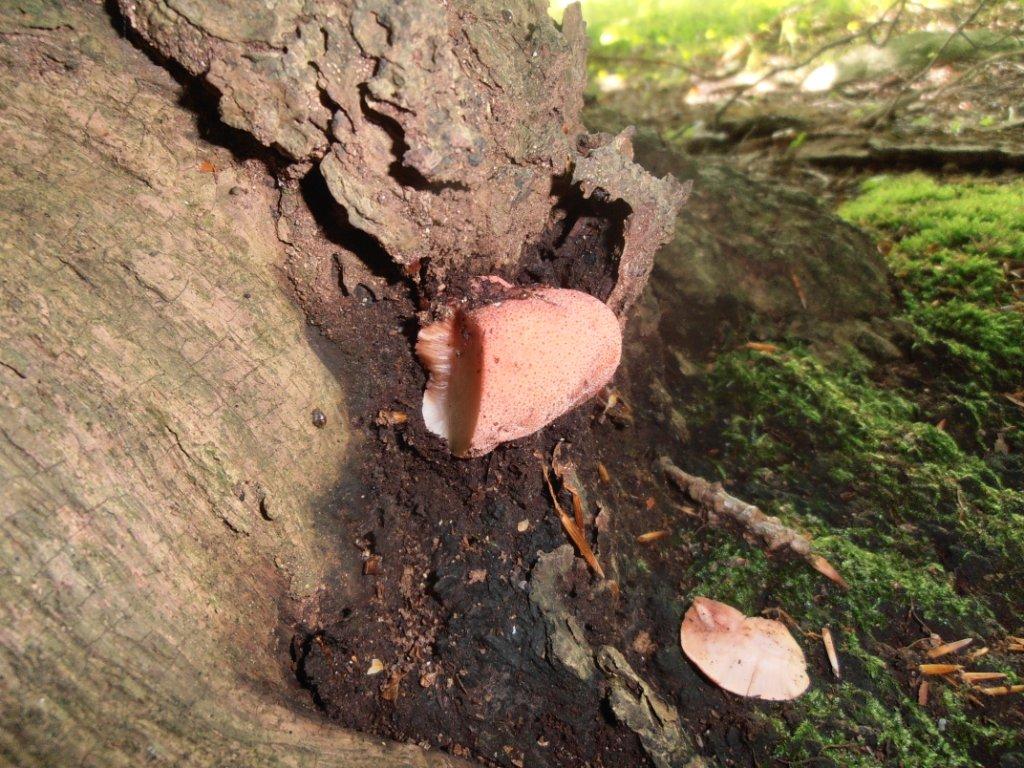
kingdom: Fungi
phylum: Basidiomycota
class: Agaricomycetes
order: Agaricales
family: Fistulinaceae
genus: Fistulina
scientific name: Fistulina hepatica
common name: oksetunge
